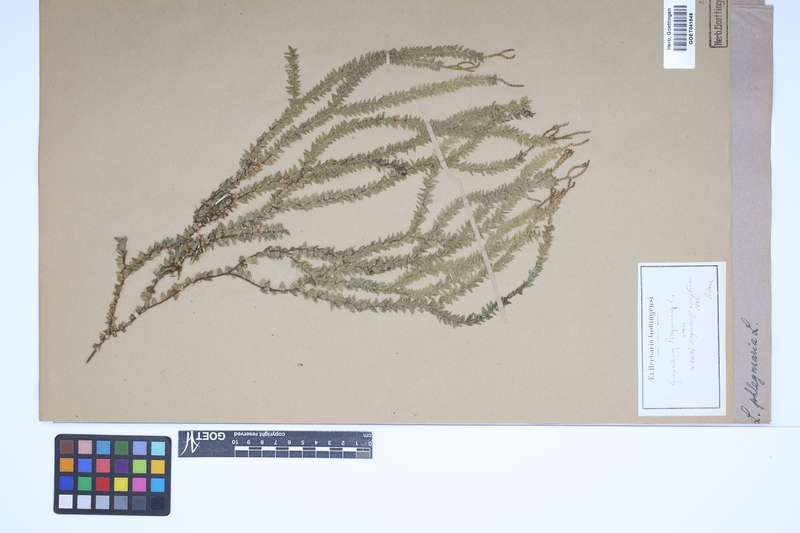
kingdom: Plantae
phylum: Tracheophyta
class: Lycopodiopsida
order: Lycopodiales
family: Lycopodiaceae
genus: Phlegmariurus
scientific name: Phlegmariurus phlegmaria
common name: Coarse tassel-fern
